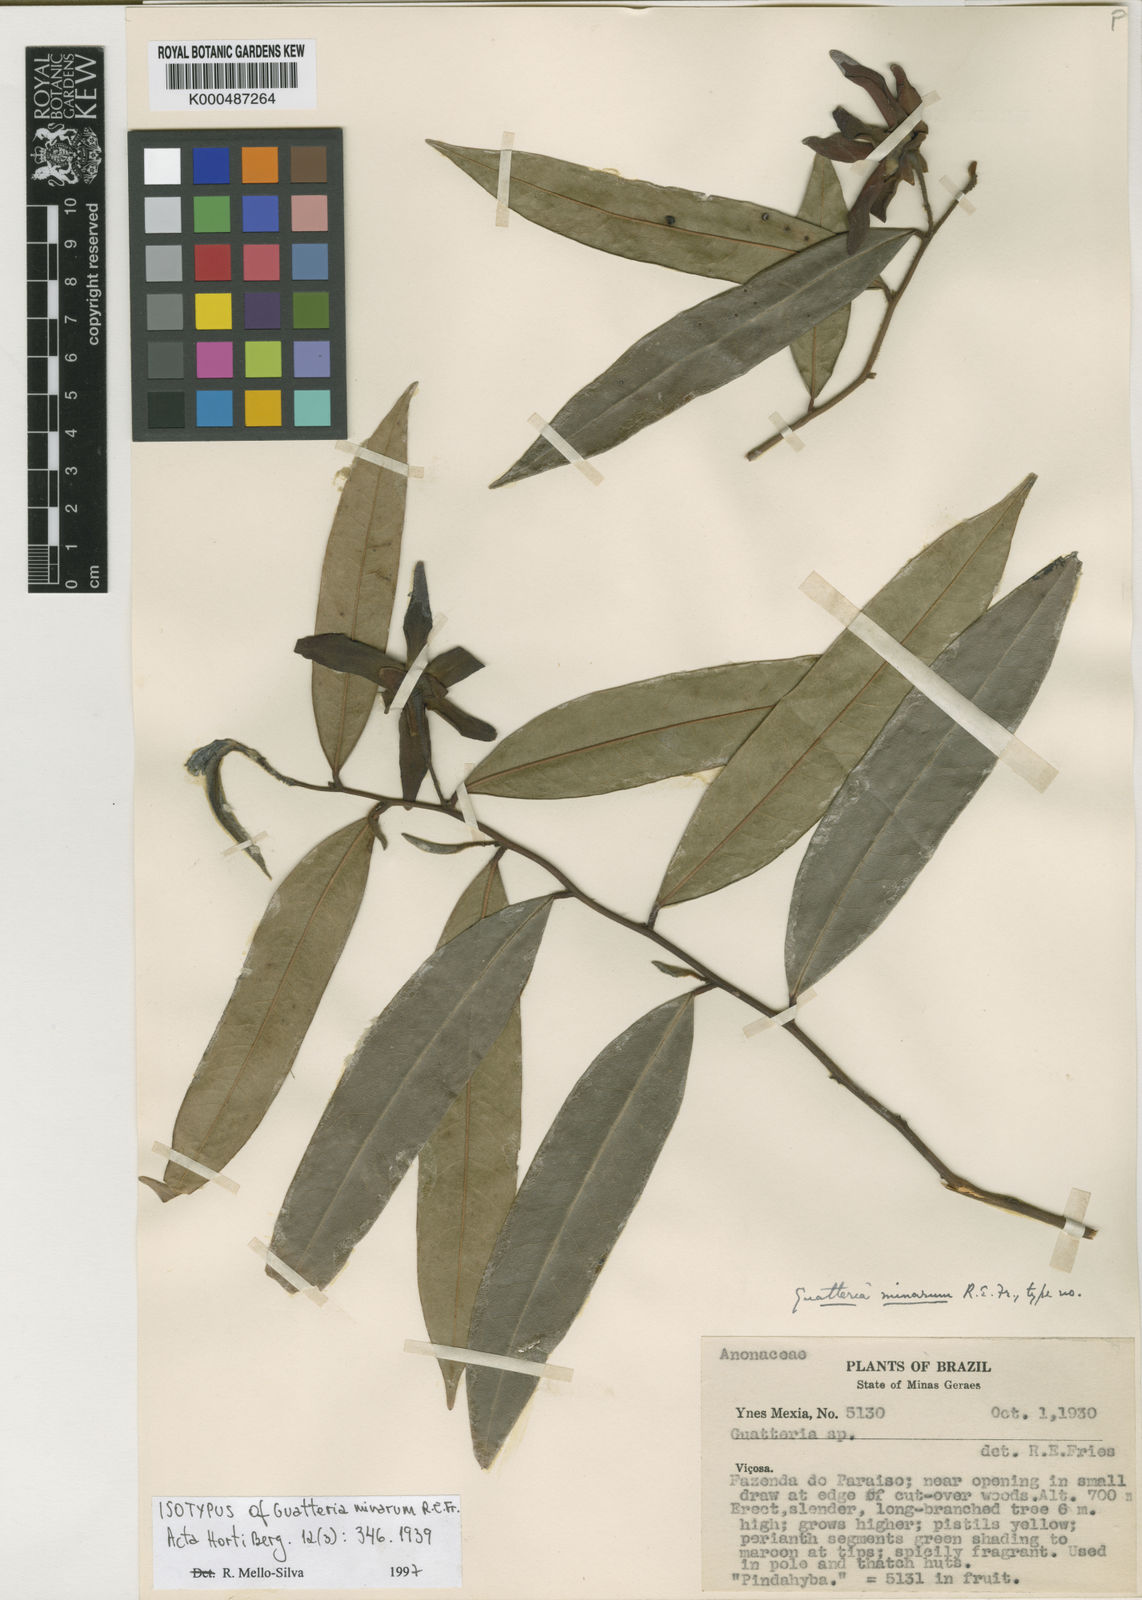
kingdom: Plantae
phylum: Tracheophyta
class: Magnoliopsida
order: Magnoliales
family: Annonaceae
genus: Guatteria
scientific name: Guatteria australis
